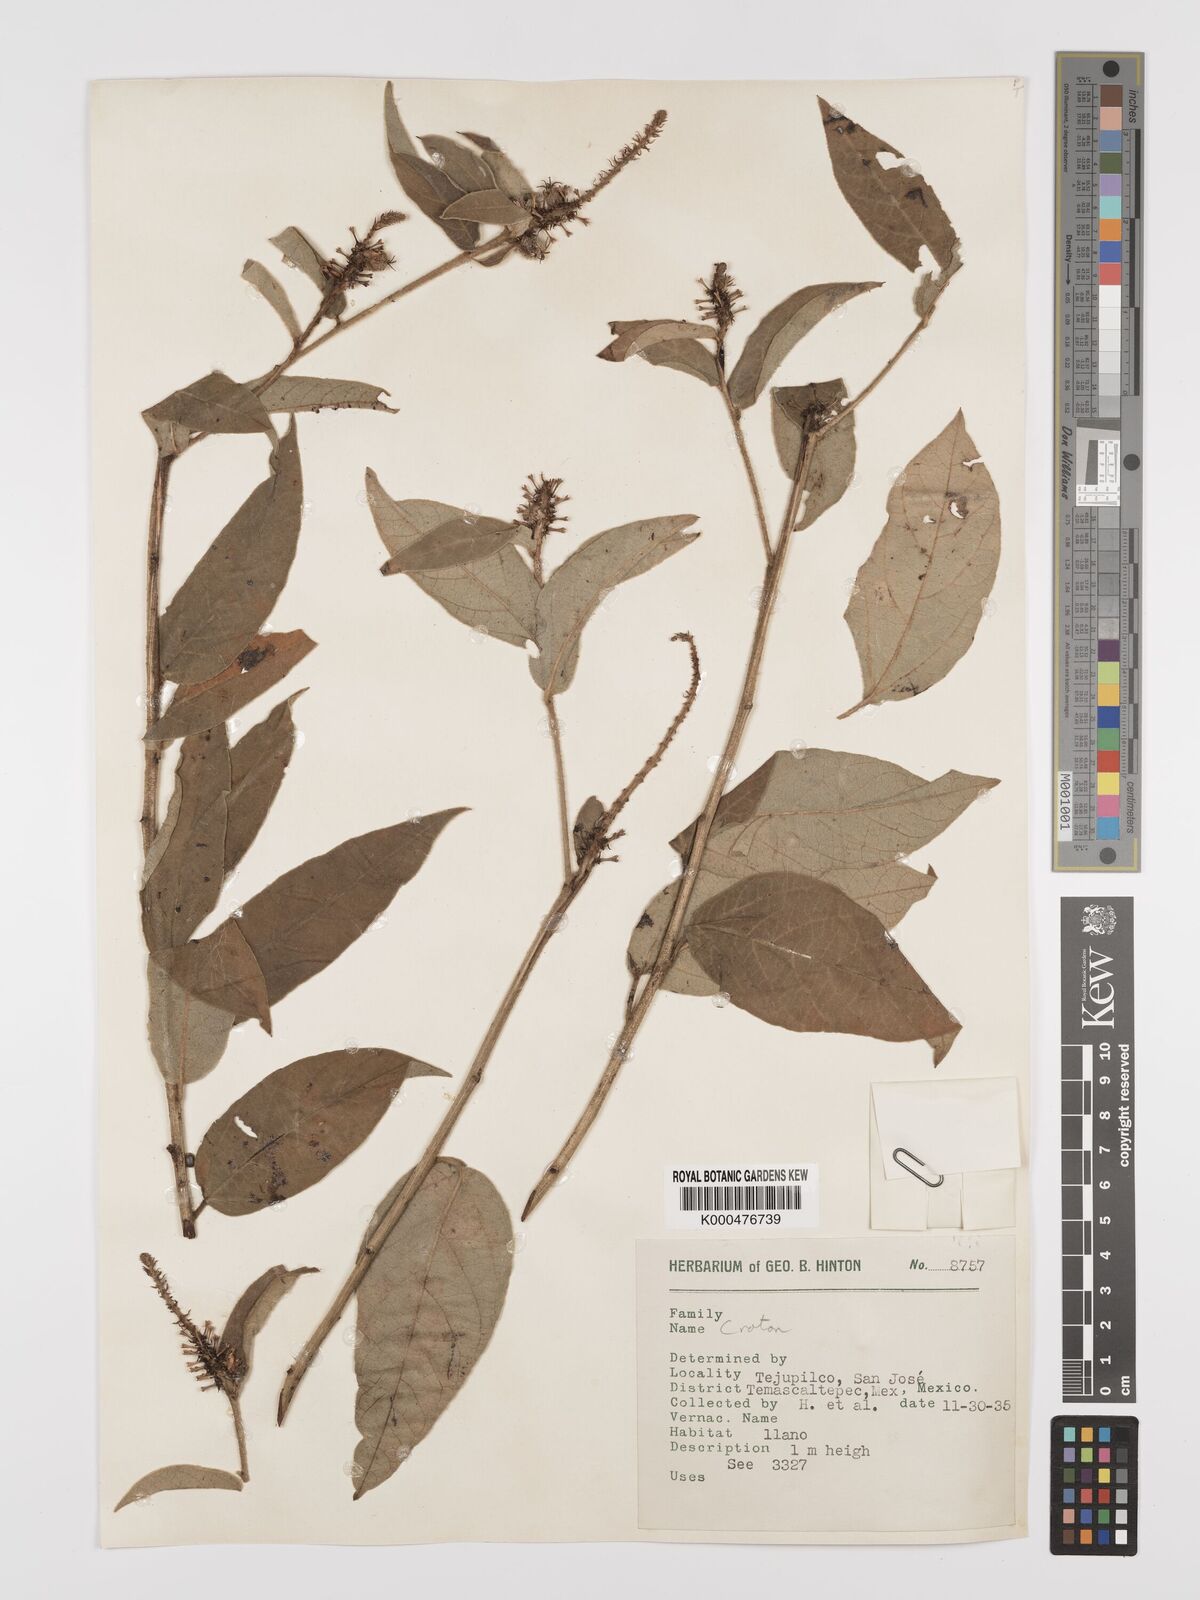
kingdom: Plantae
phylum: Tracheophyta
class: Magnoliopsida
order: Malpighiales
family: Euphorbiaceae
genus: Croton
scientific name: Croton
